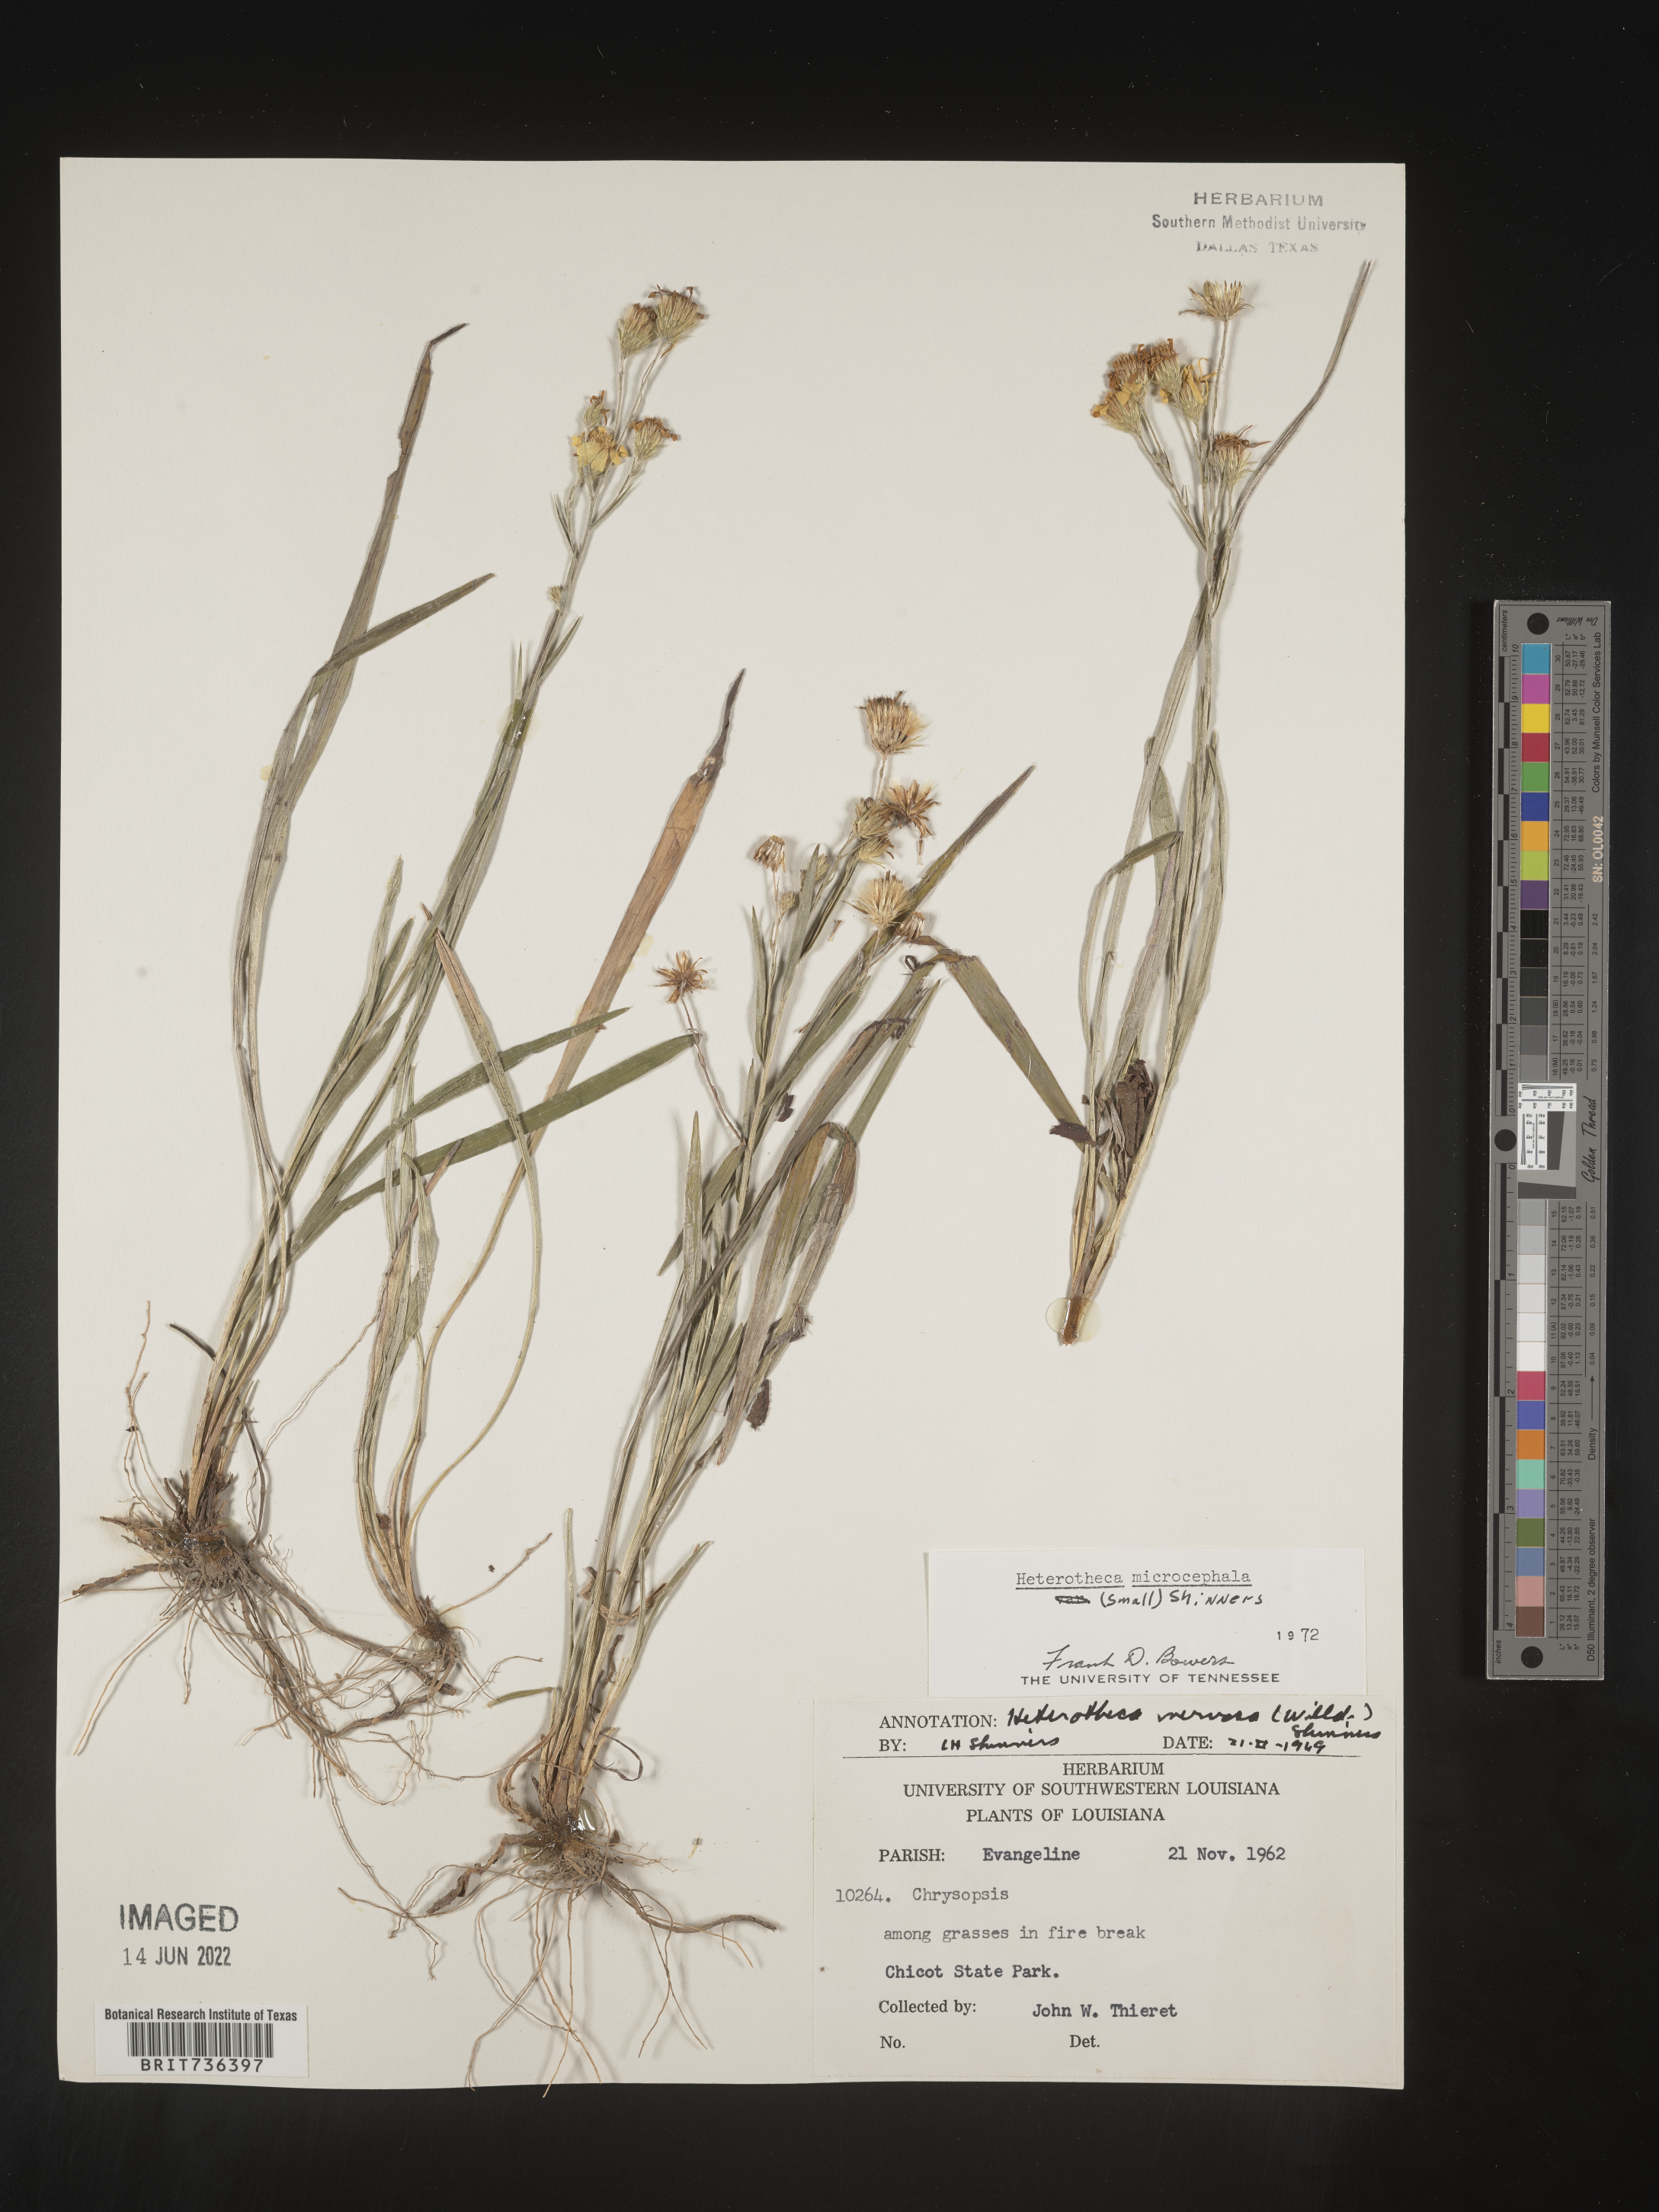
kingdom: Plantae
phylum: Tracheophyta
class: Magnoliopsida
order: Asterales
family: Asteraceae
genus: Pityopsis
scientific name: Pityopsis tenuifolia
